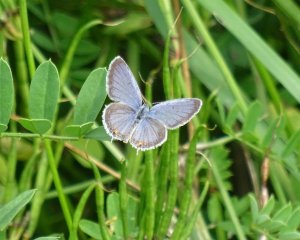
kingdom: Animalia
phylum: Arthropoda
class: Insecta
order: Lepidoptera
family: Lycaenidae
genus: Elkalyce
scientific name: Elkalyce comyntas
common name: Eastern Tailed-Blue
